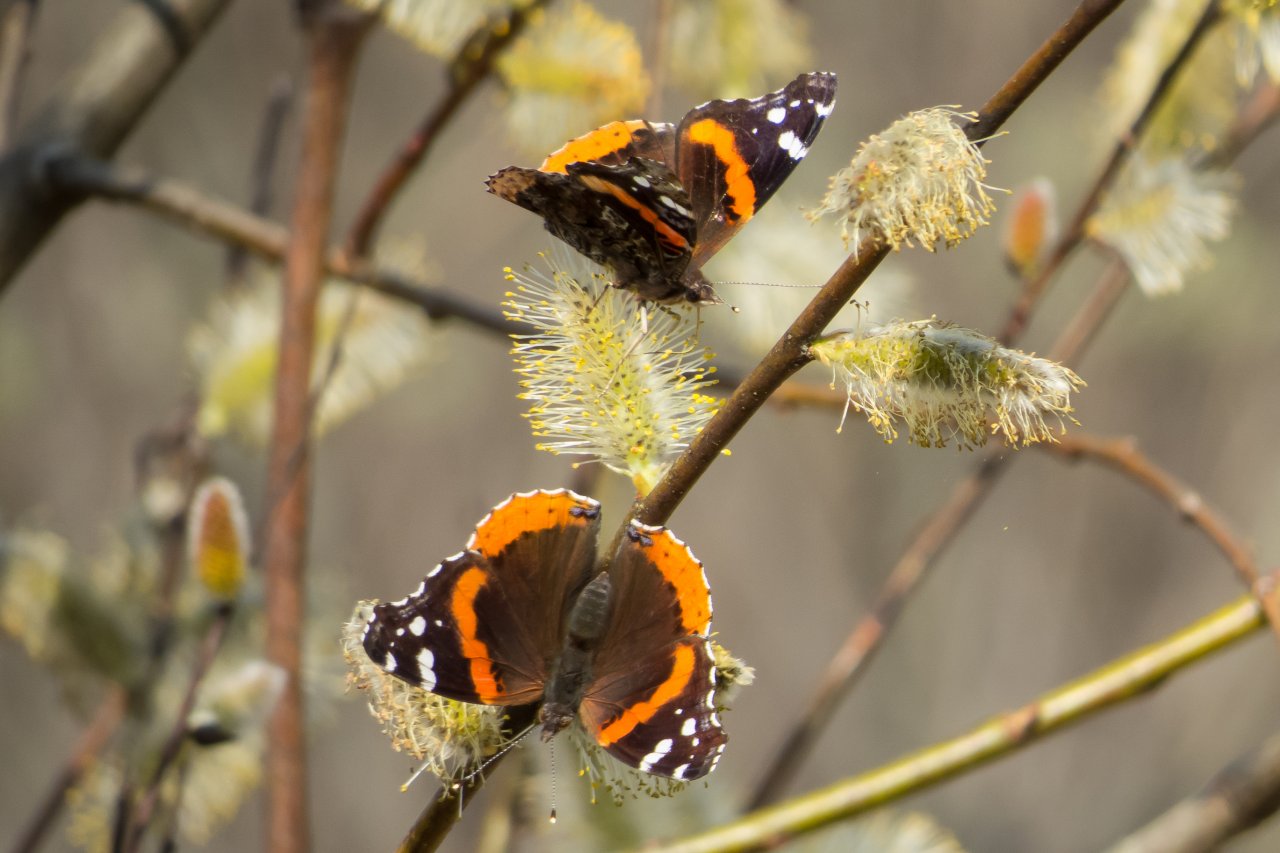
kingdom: Animalia
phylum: Arthropoda
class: Insecta
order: Lepidoptera
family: Nymphalidae
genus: Vanessa
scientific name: Vanessa atalanta
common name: Red Admiral
